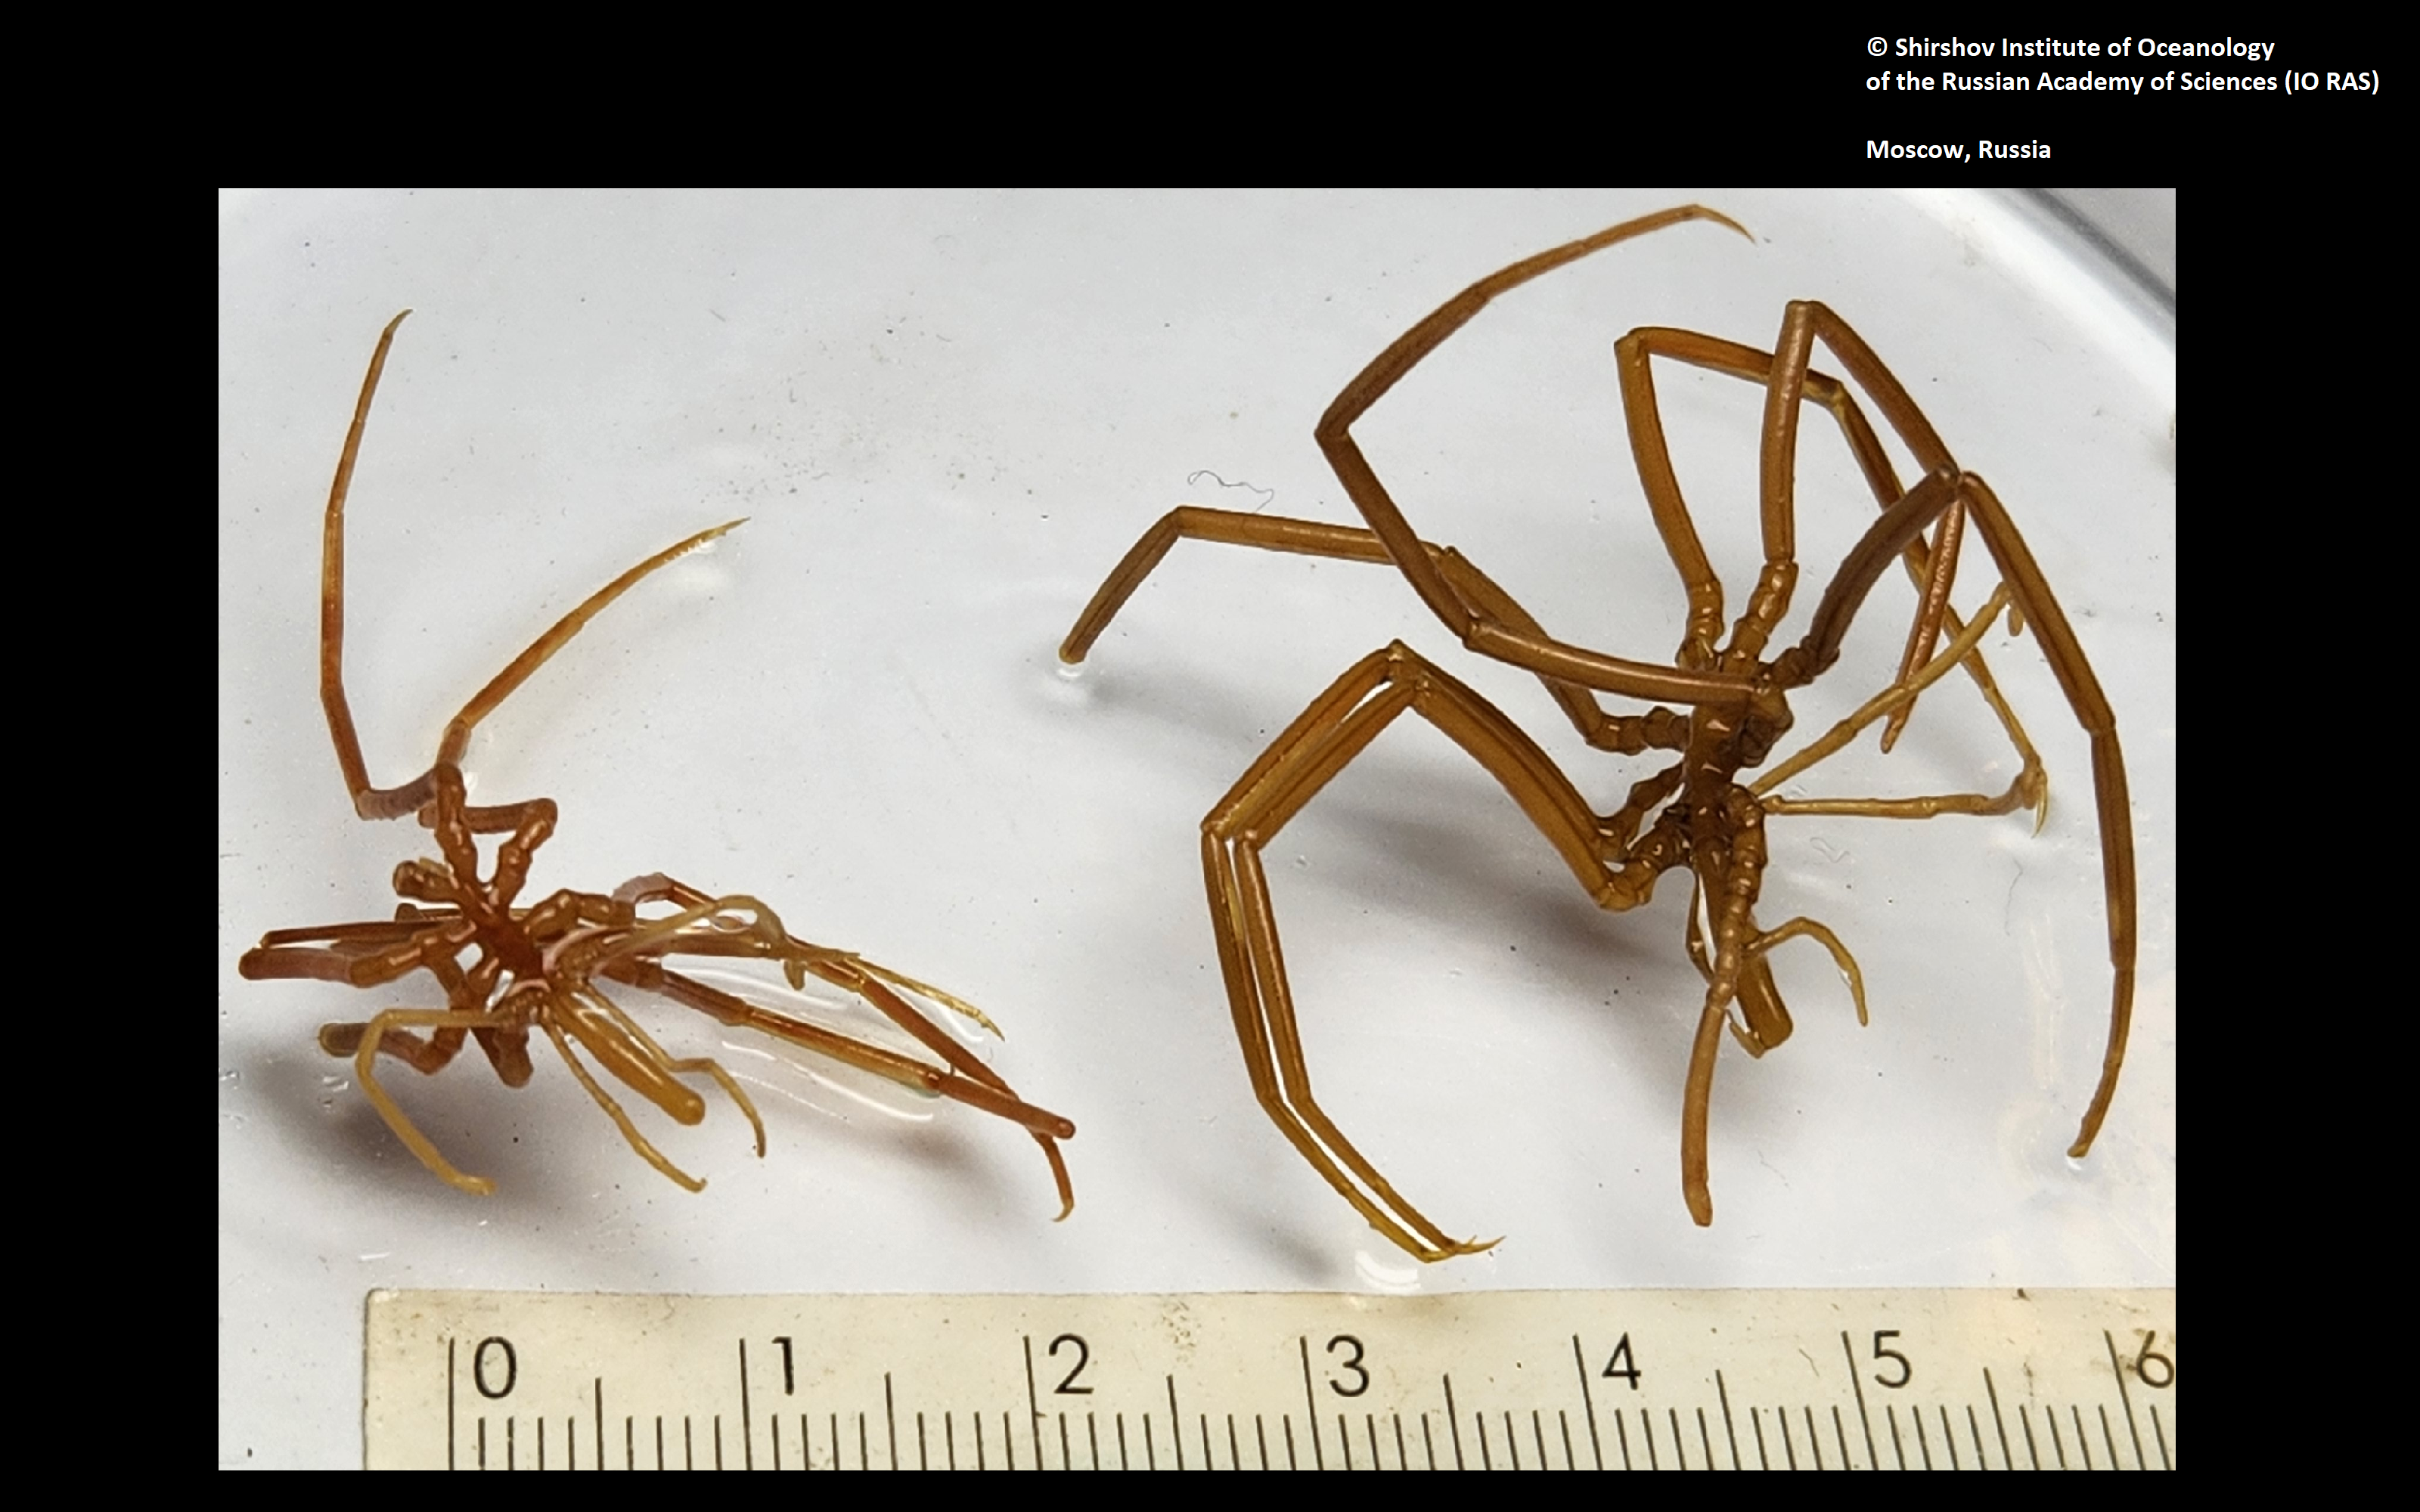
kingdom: Animalia
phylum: Arthropoda
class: Pycnogonida
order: Pantopoda
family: Colossendeidae
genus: Colossendeis
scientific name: Colossendeis megalonyx
